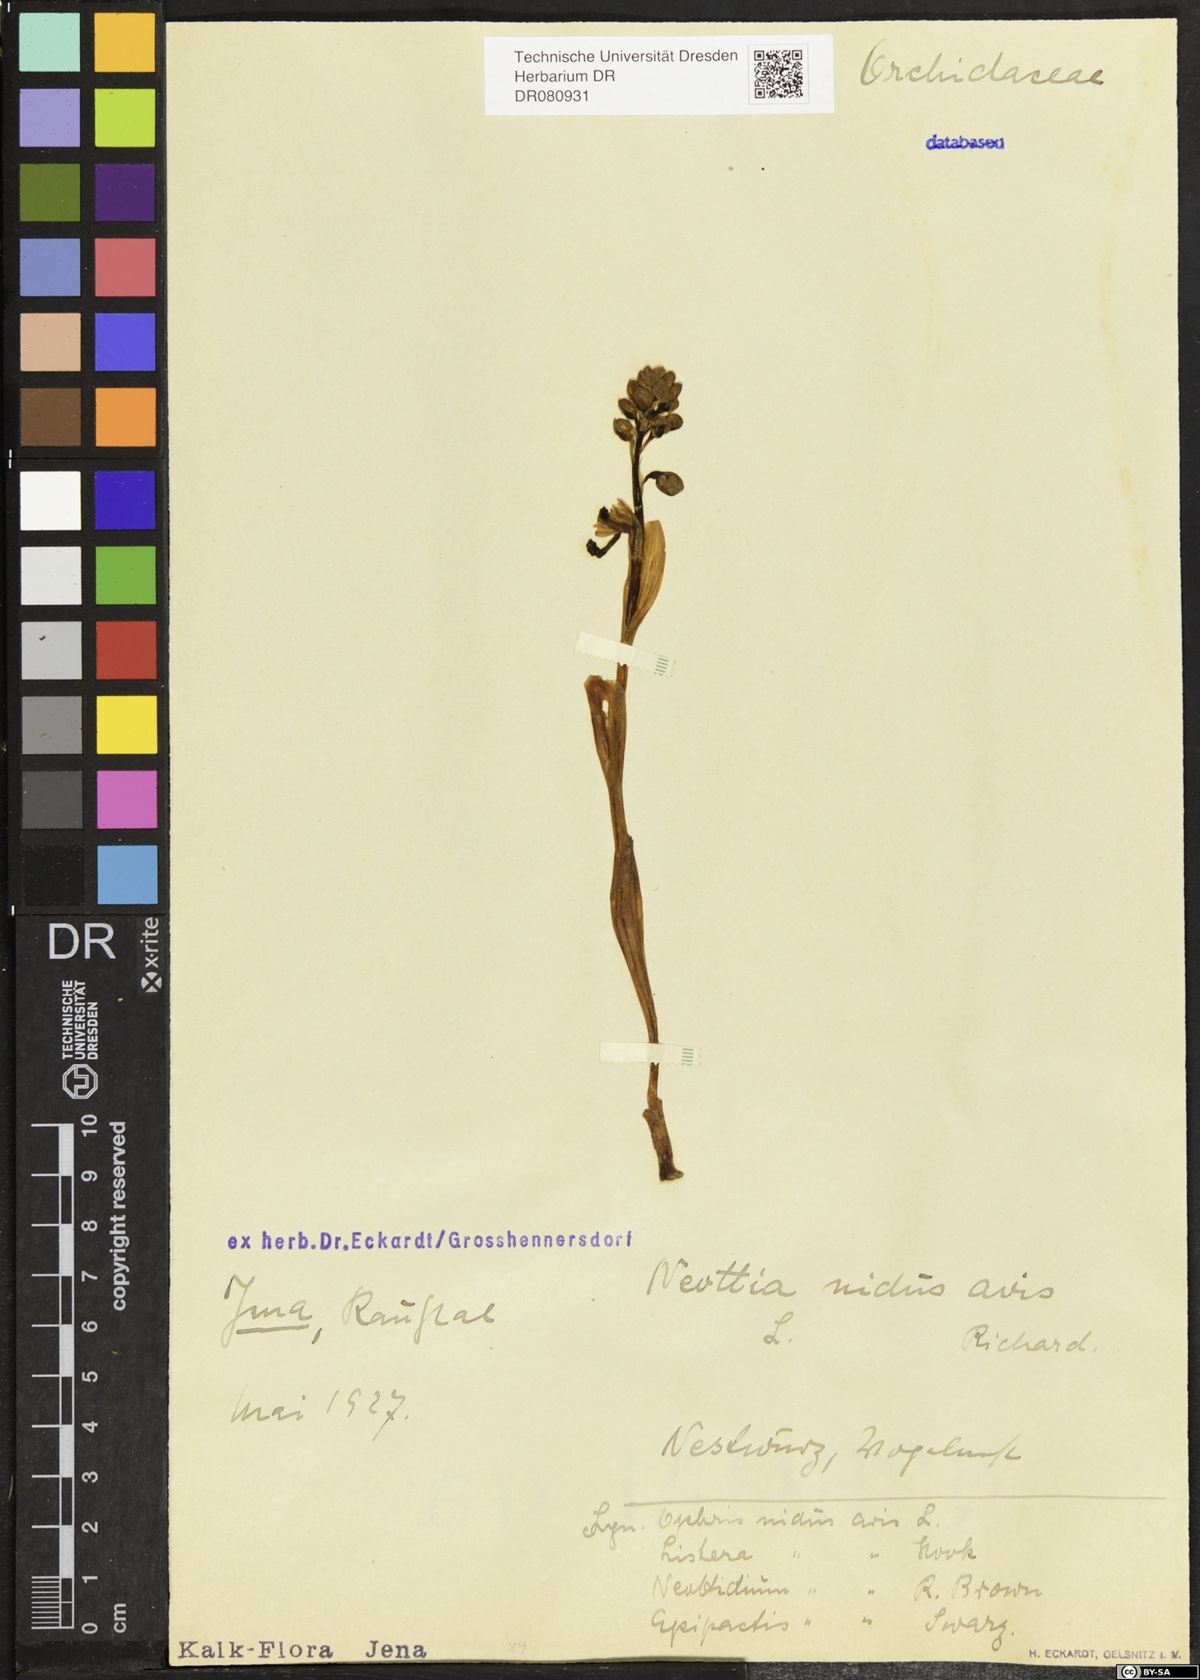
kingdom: Plantae
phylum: Tracheophyta
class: Liliopsida
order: Asparagales
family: Orchidaceae
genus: Neottia
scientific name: Neottia nidus-avis
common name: Bird's-nest orchid
